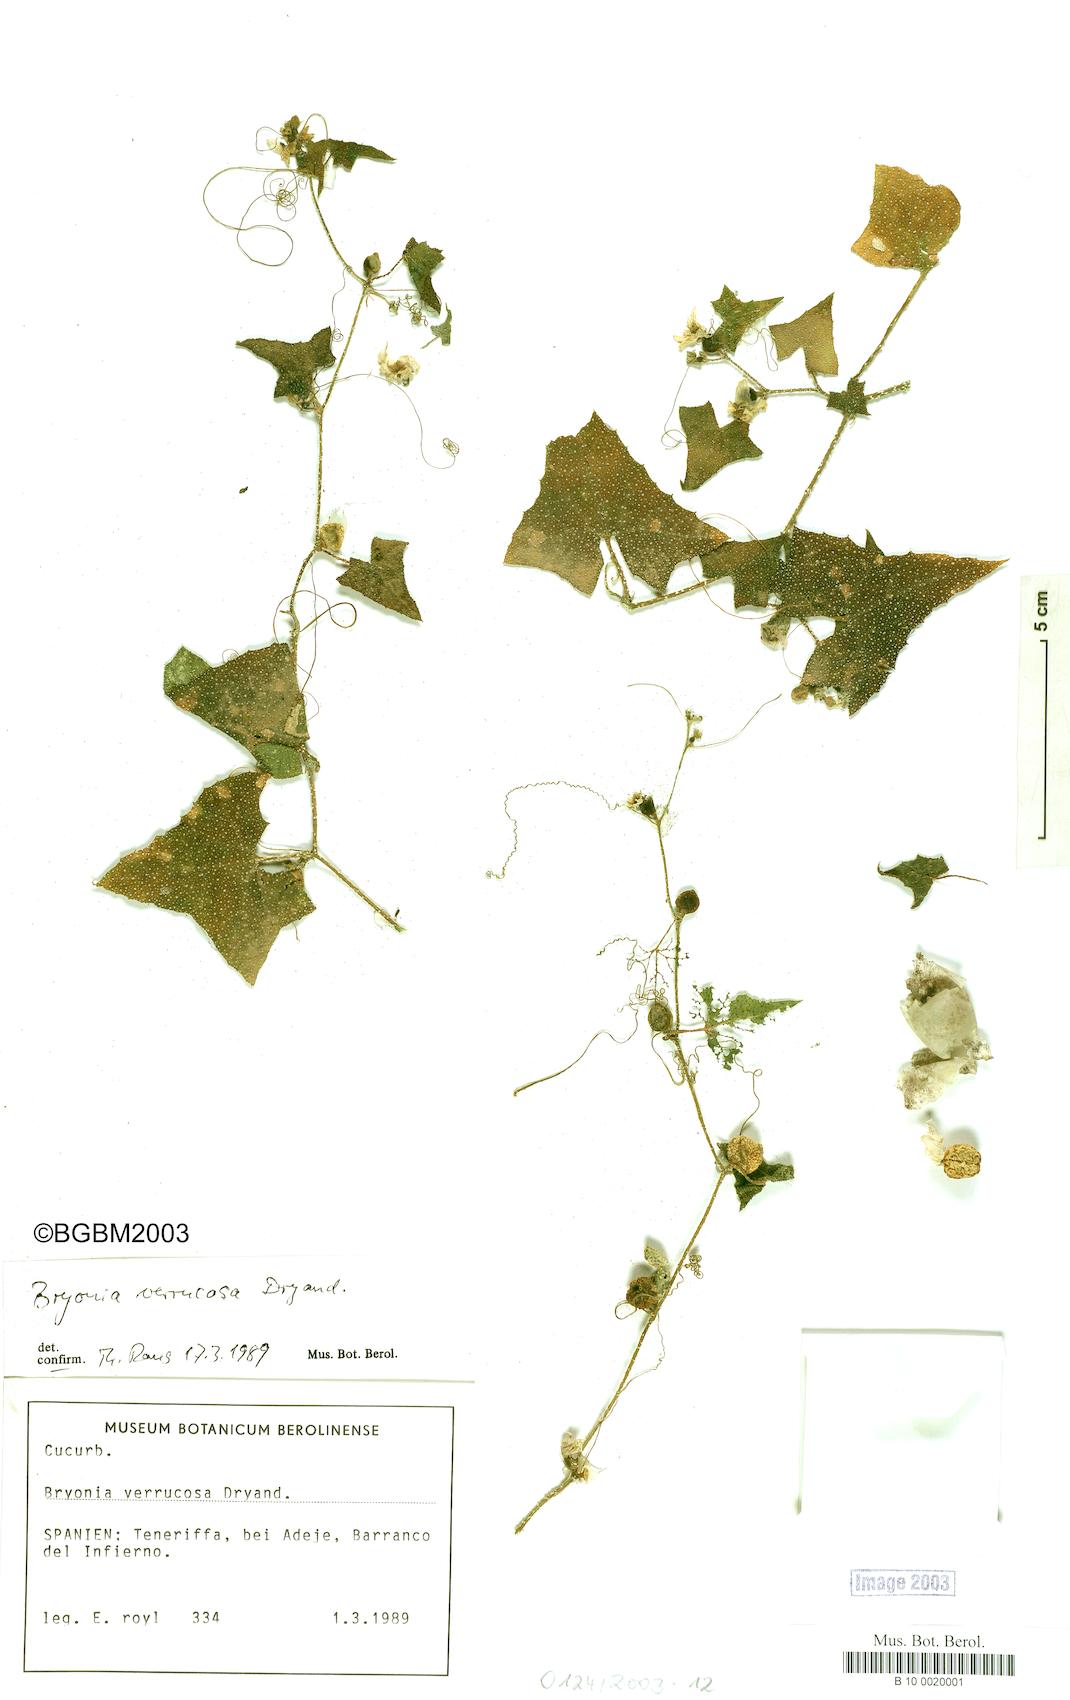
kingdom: Plantae
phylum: Tracheophyta
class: Magnoliopsida
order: Cucurbitales
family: Cucurbitaceae
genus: Bryonia
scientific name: Bryonia verrucosa
